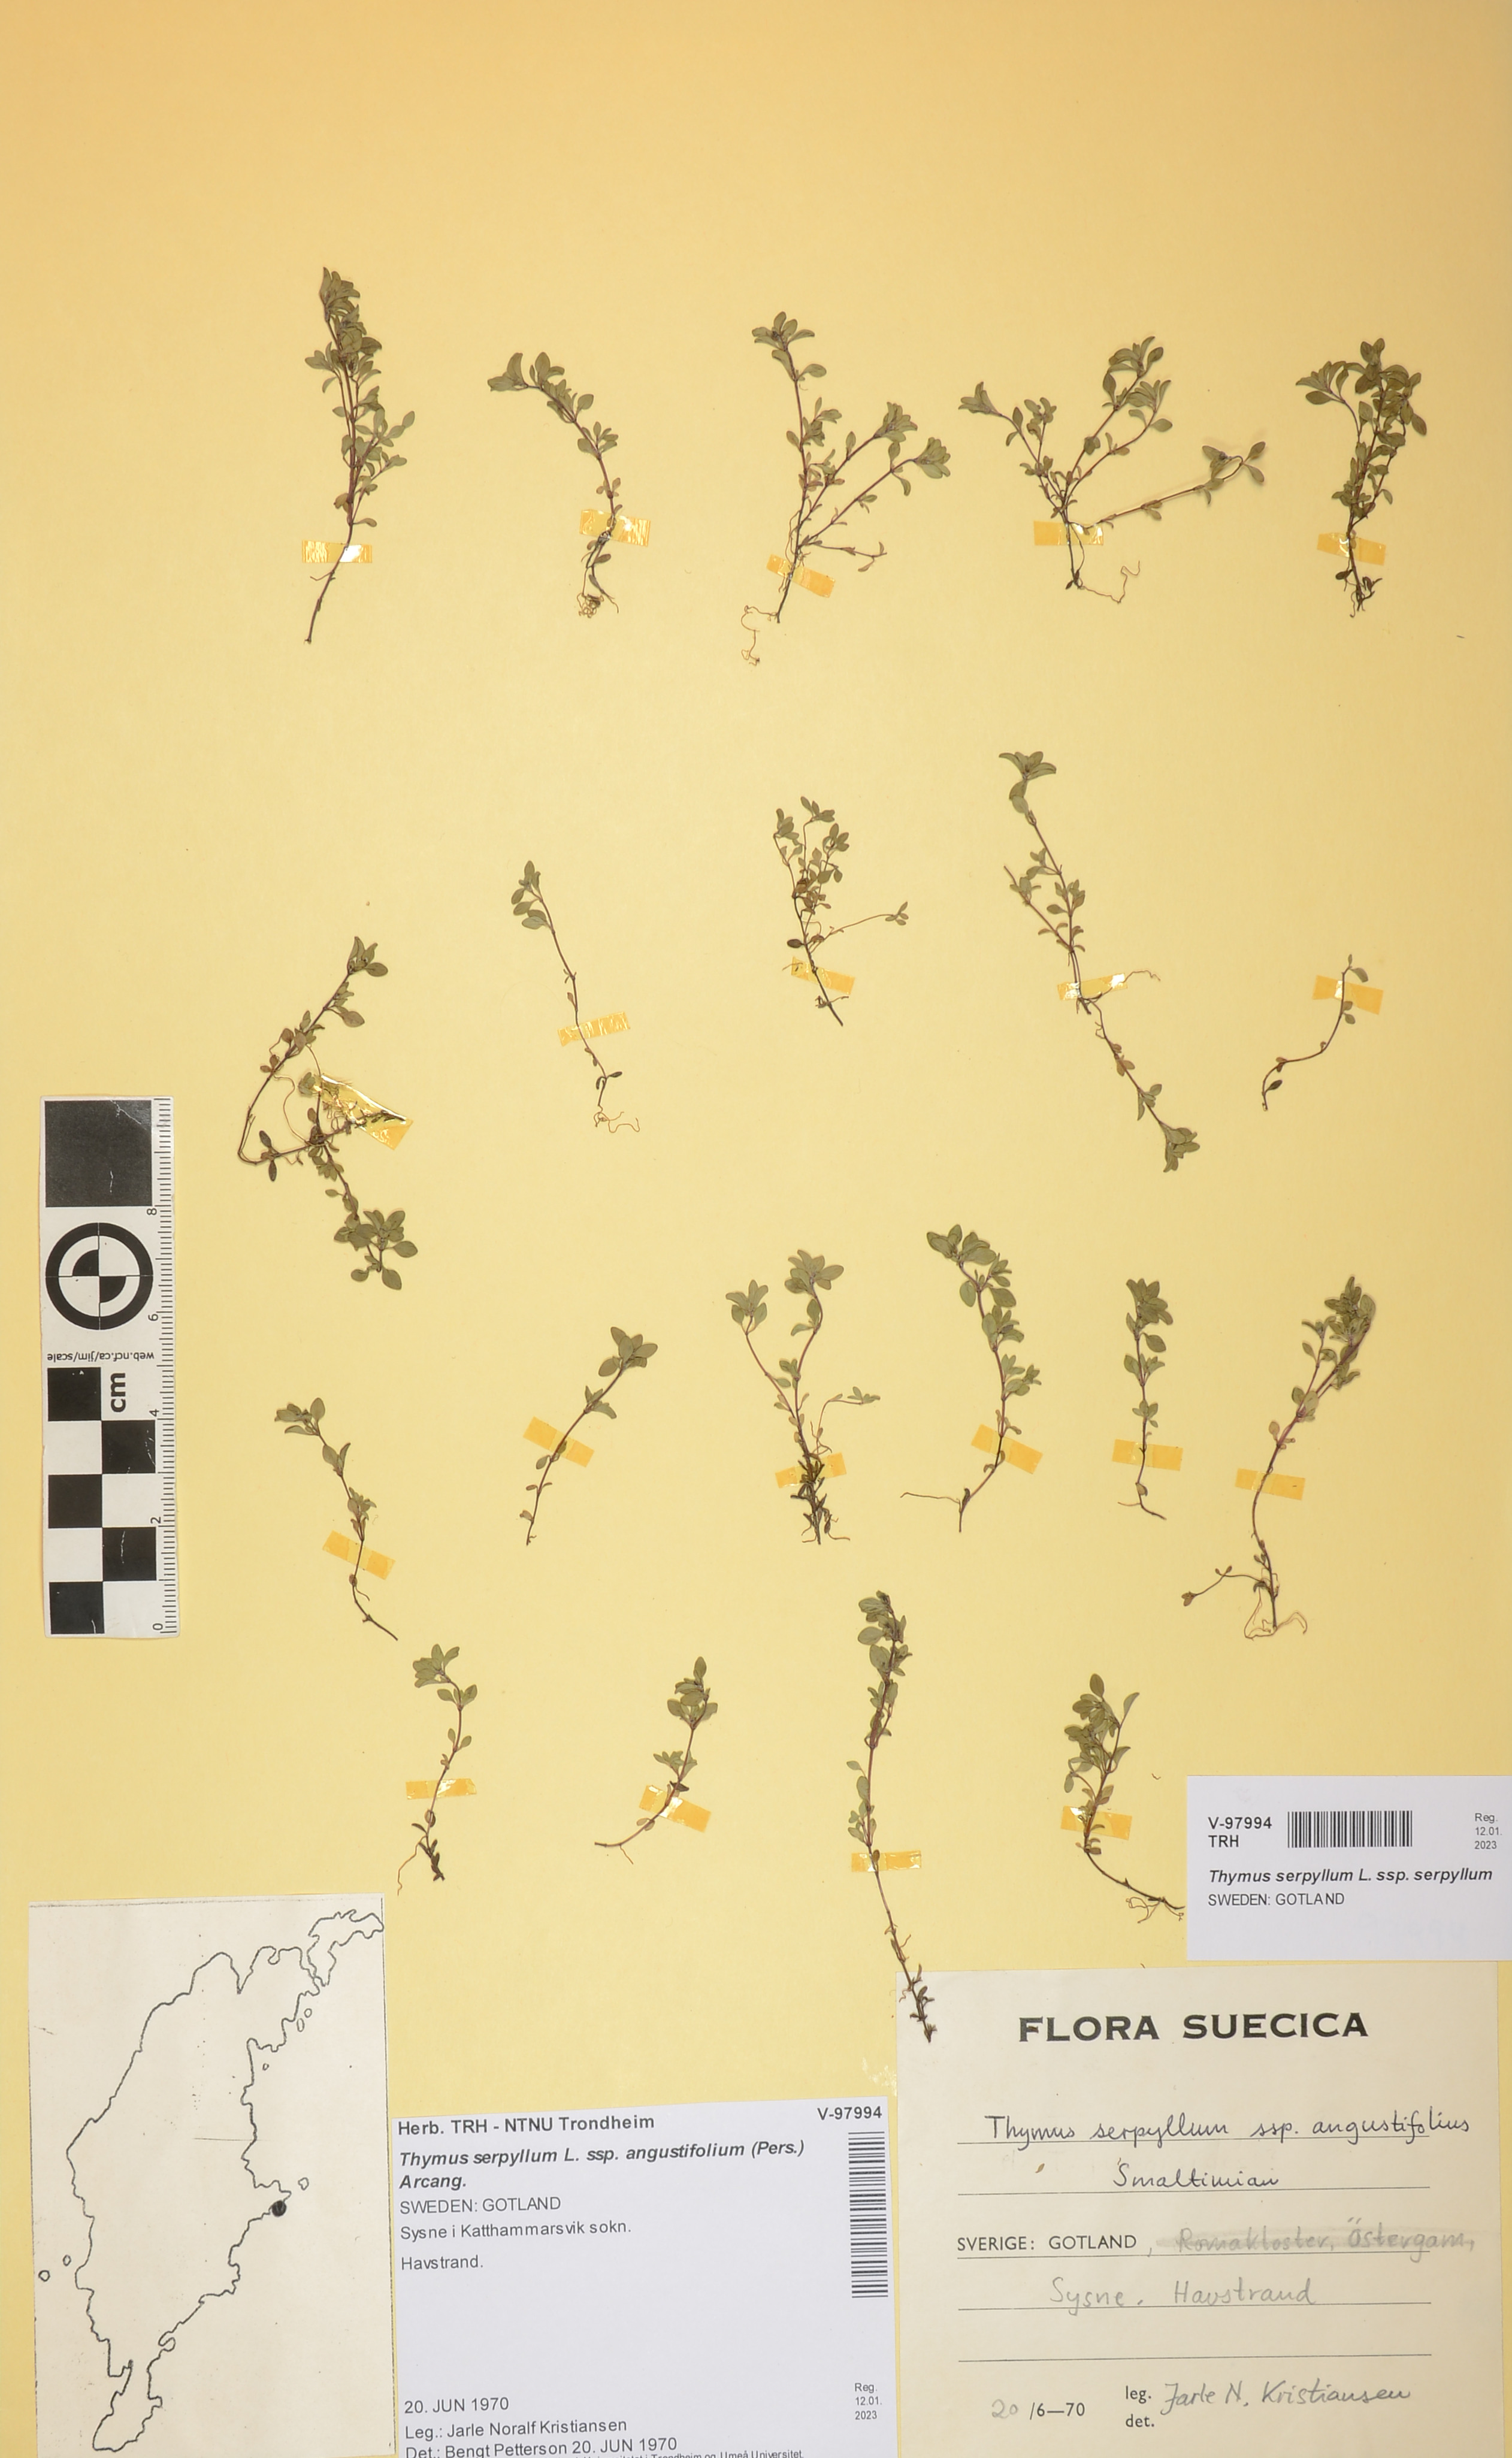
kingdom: Plantae
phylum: Tracheophyta
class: Magnoliopsida
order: Lamiales
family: Lamiaceae
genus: Thymus
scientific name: Thymus serpyllum
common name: Breckland thyme
